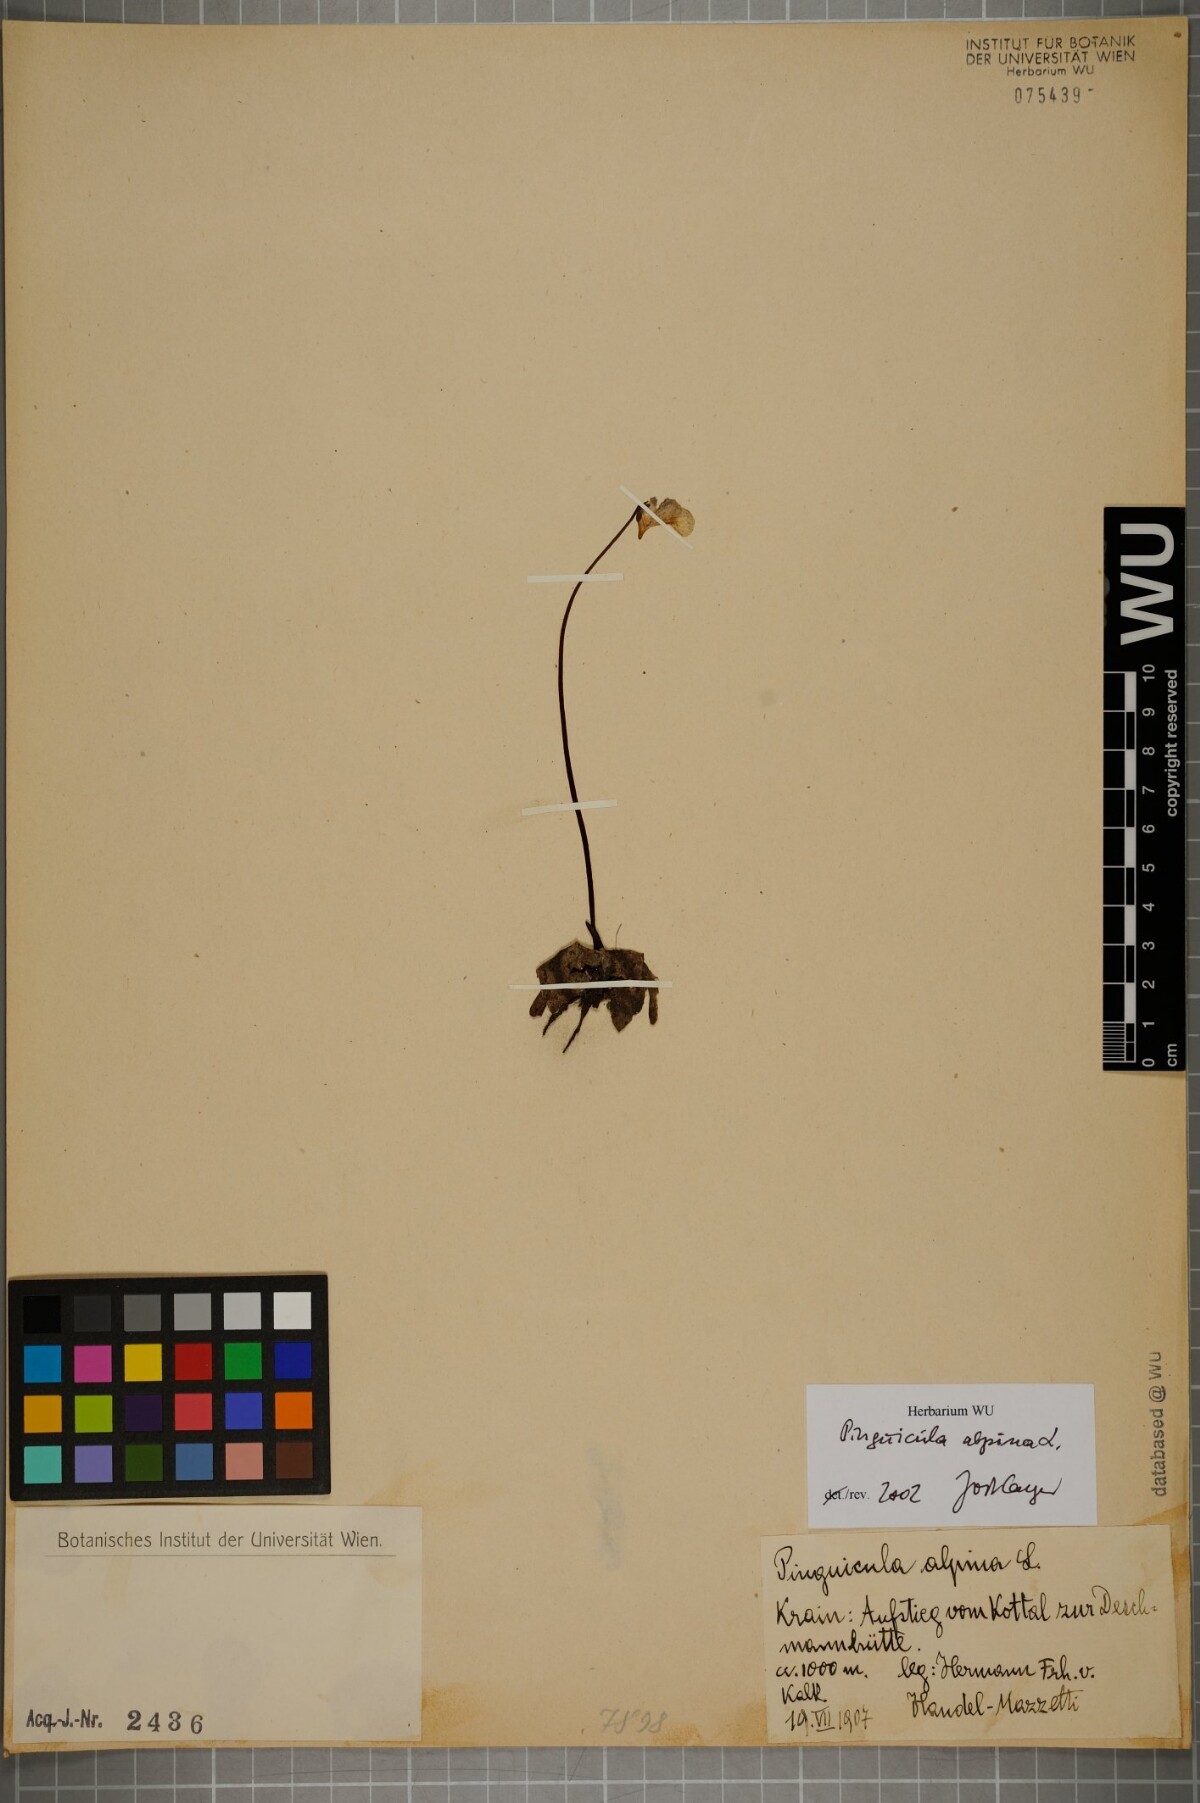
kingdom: Plantae
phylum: Tracheophyta
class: Magnoliopsida
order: Lamiales
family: Lentibulariaceae
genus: Pinguicula
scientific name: Pinguicula alpina
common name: Alpine butterwort
